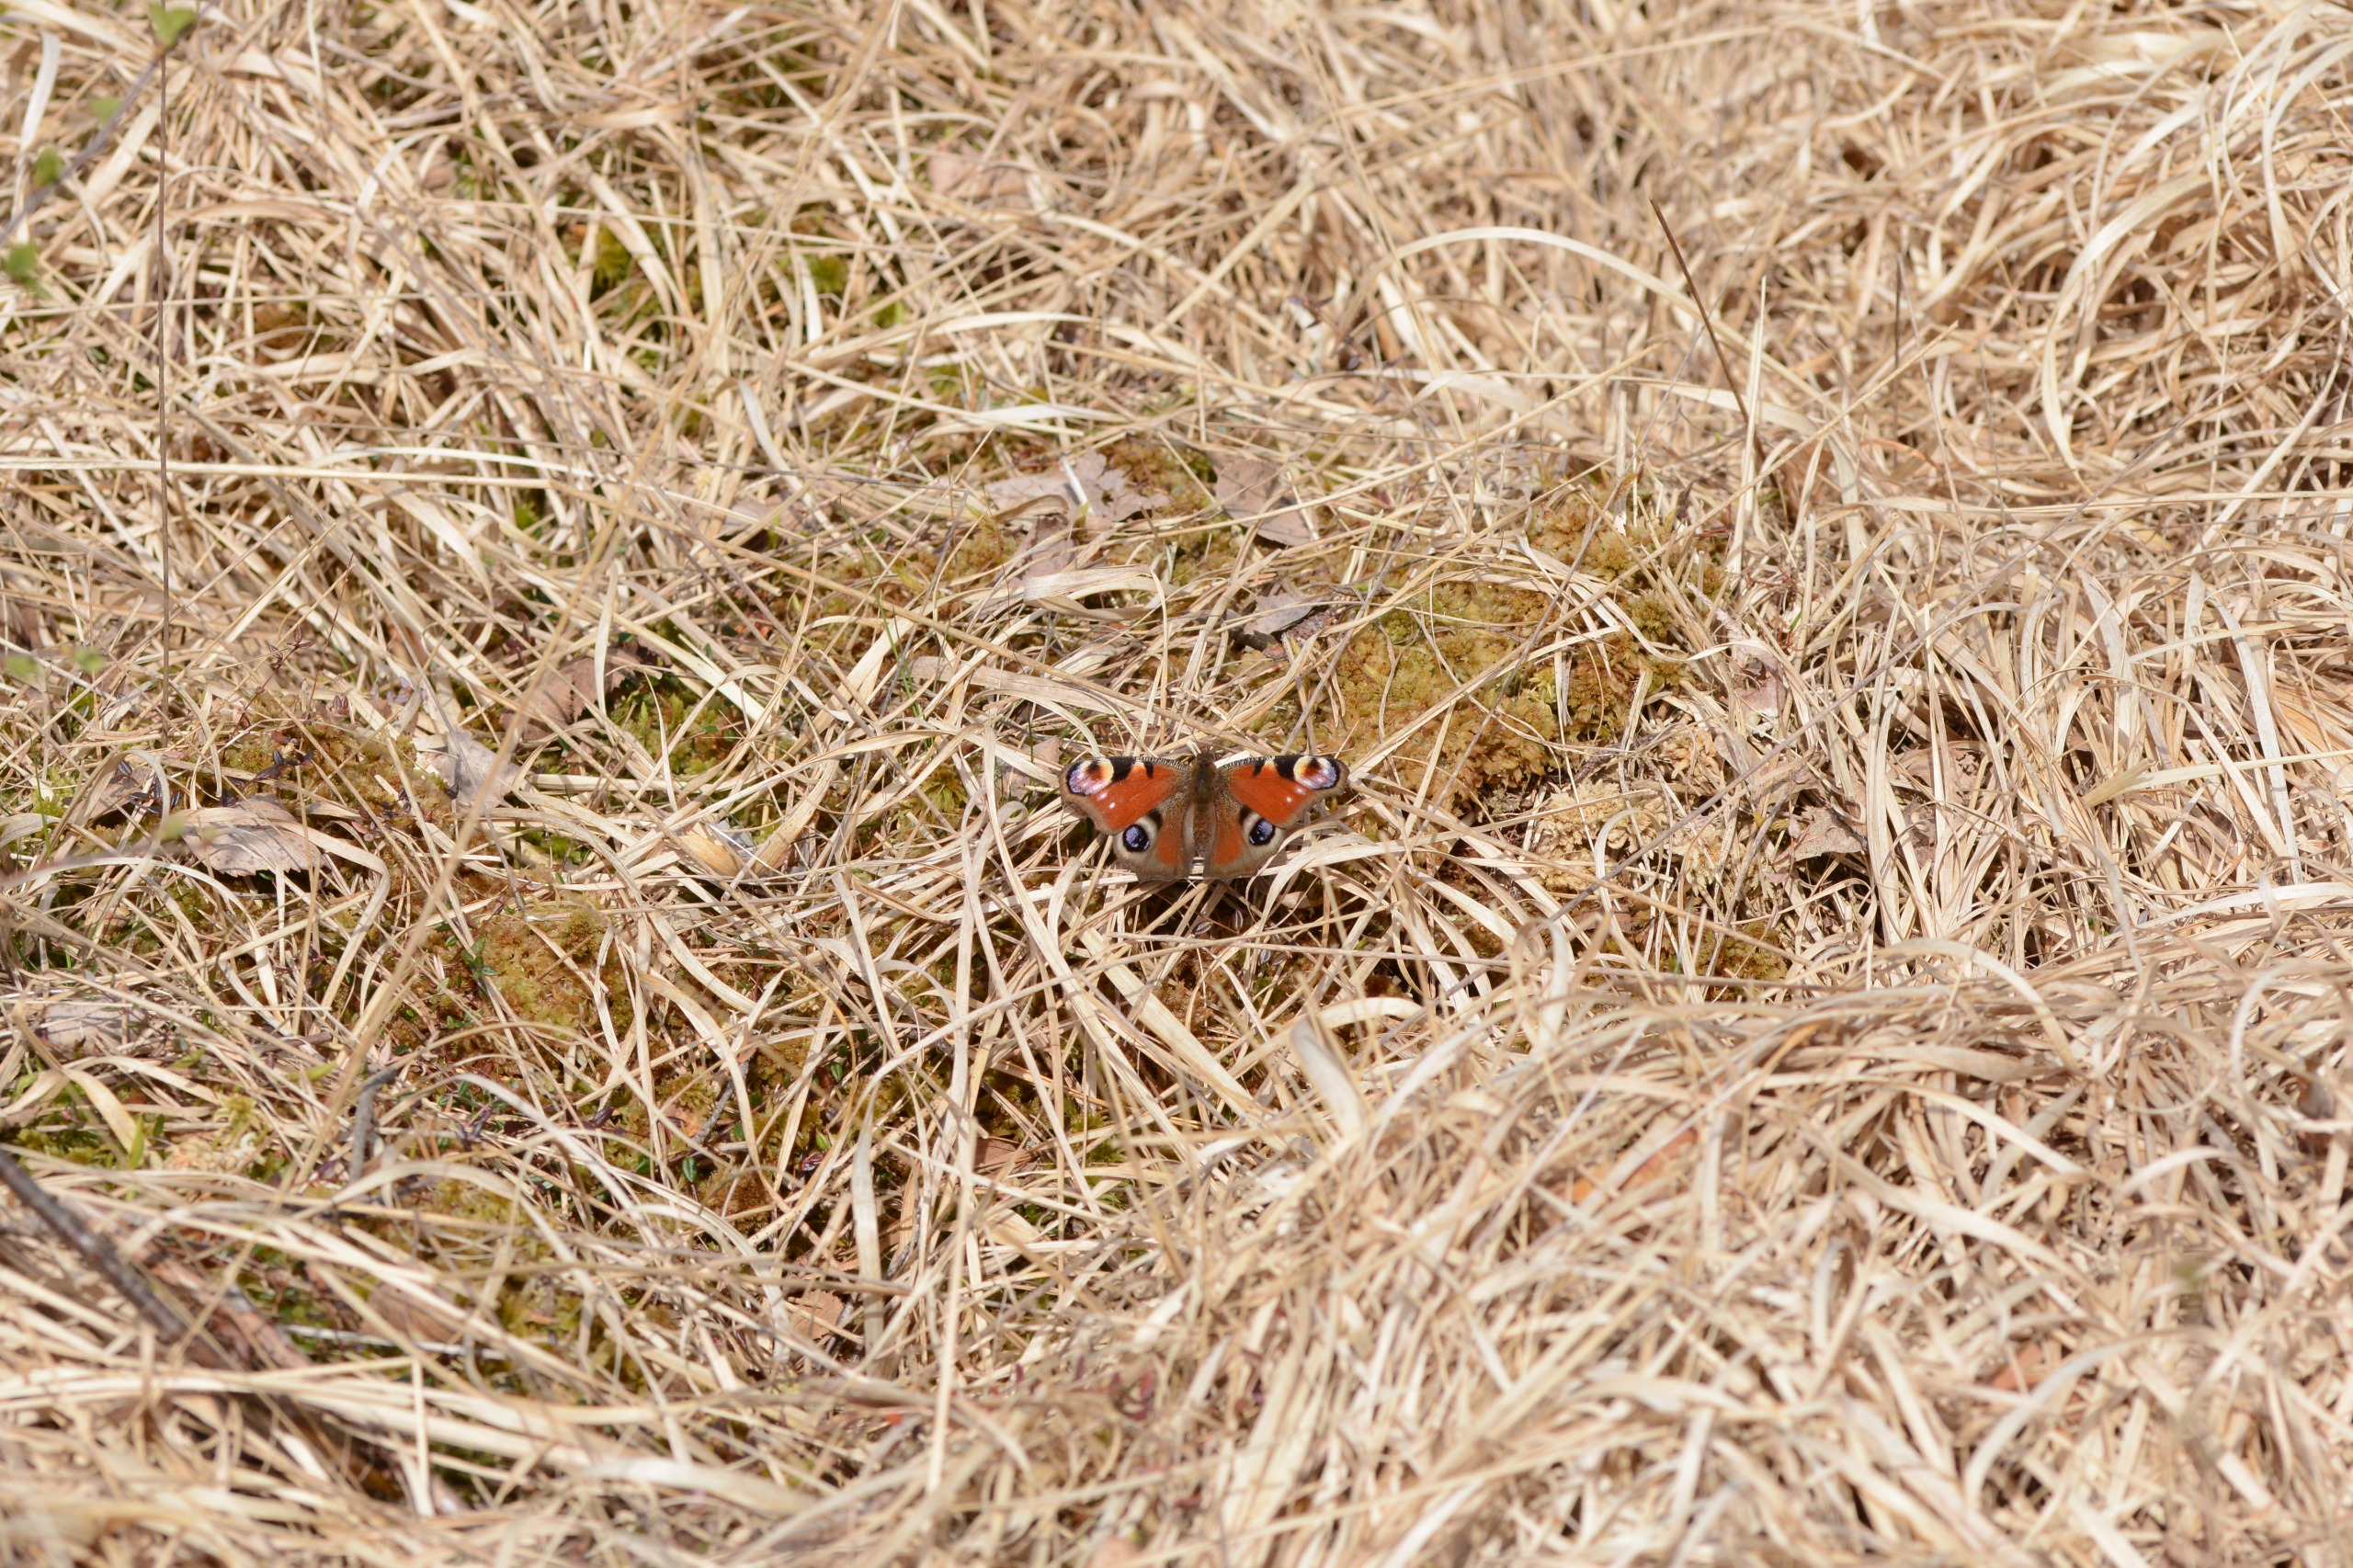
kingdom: Animalia
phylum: Arthropoda
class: Insecta
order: Lepidoptera
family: Nymphalidae
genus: Aglais
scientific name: Aglais io
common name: Dagpåfugleøje
